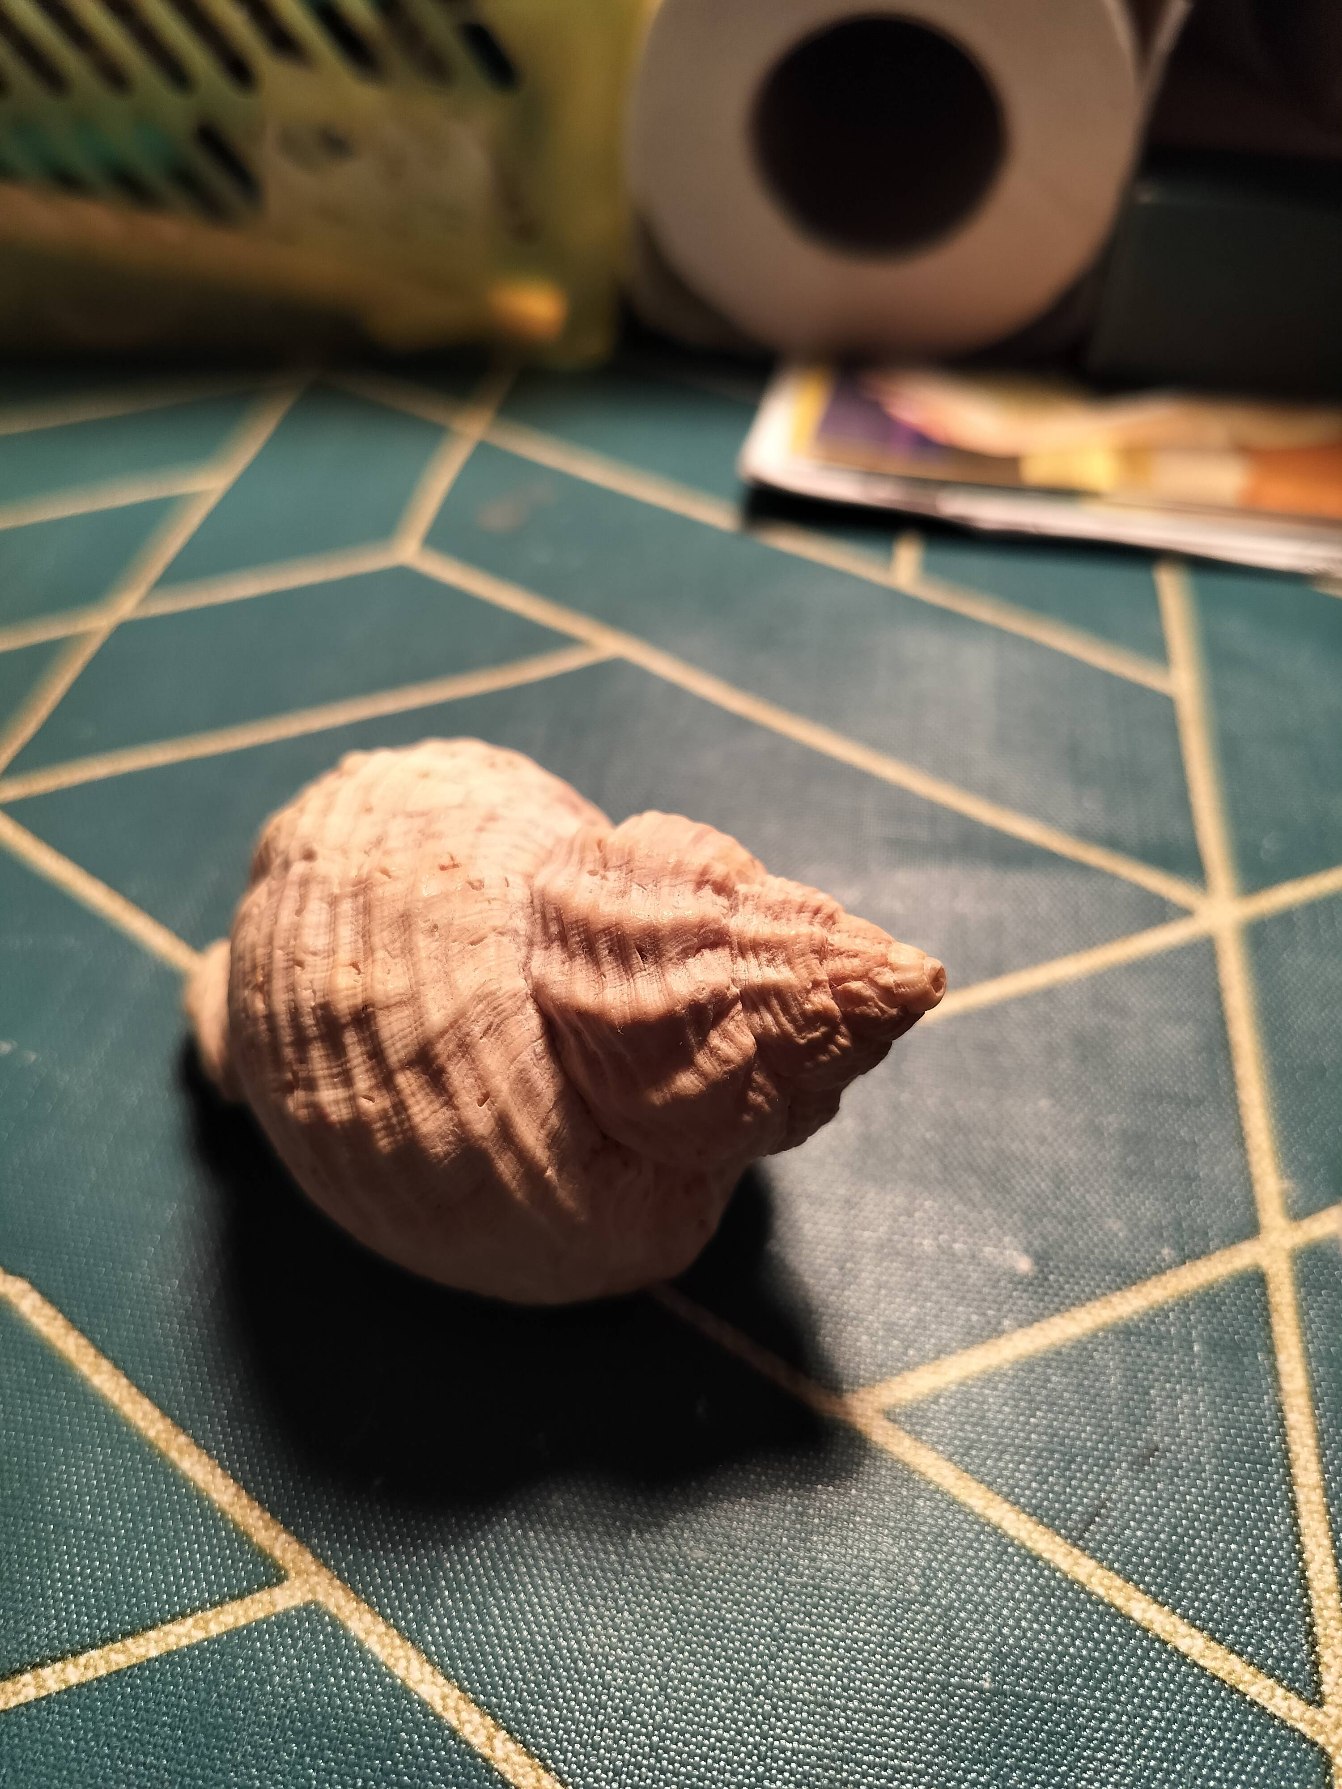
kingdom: Animalia
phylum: Mollusca
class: Gastropoda
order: Neogastropoda
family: Buccinidae
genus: Buccinum
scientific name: Buccinum undatum
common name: Konk
